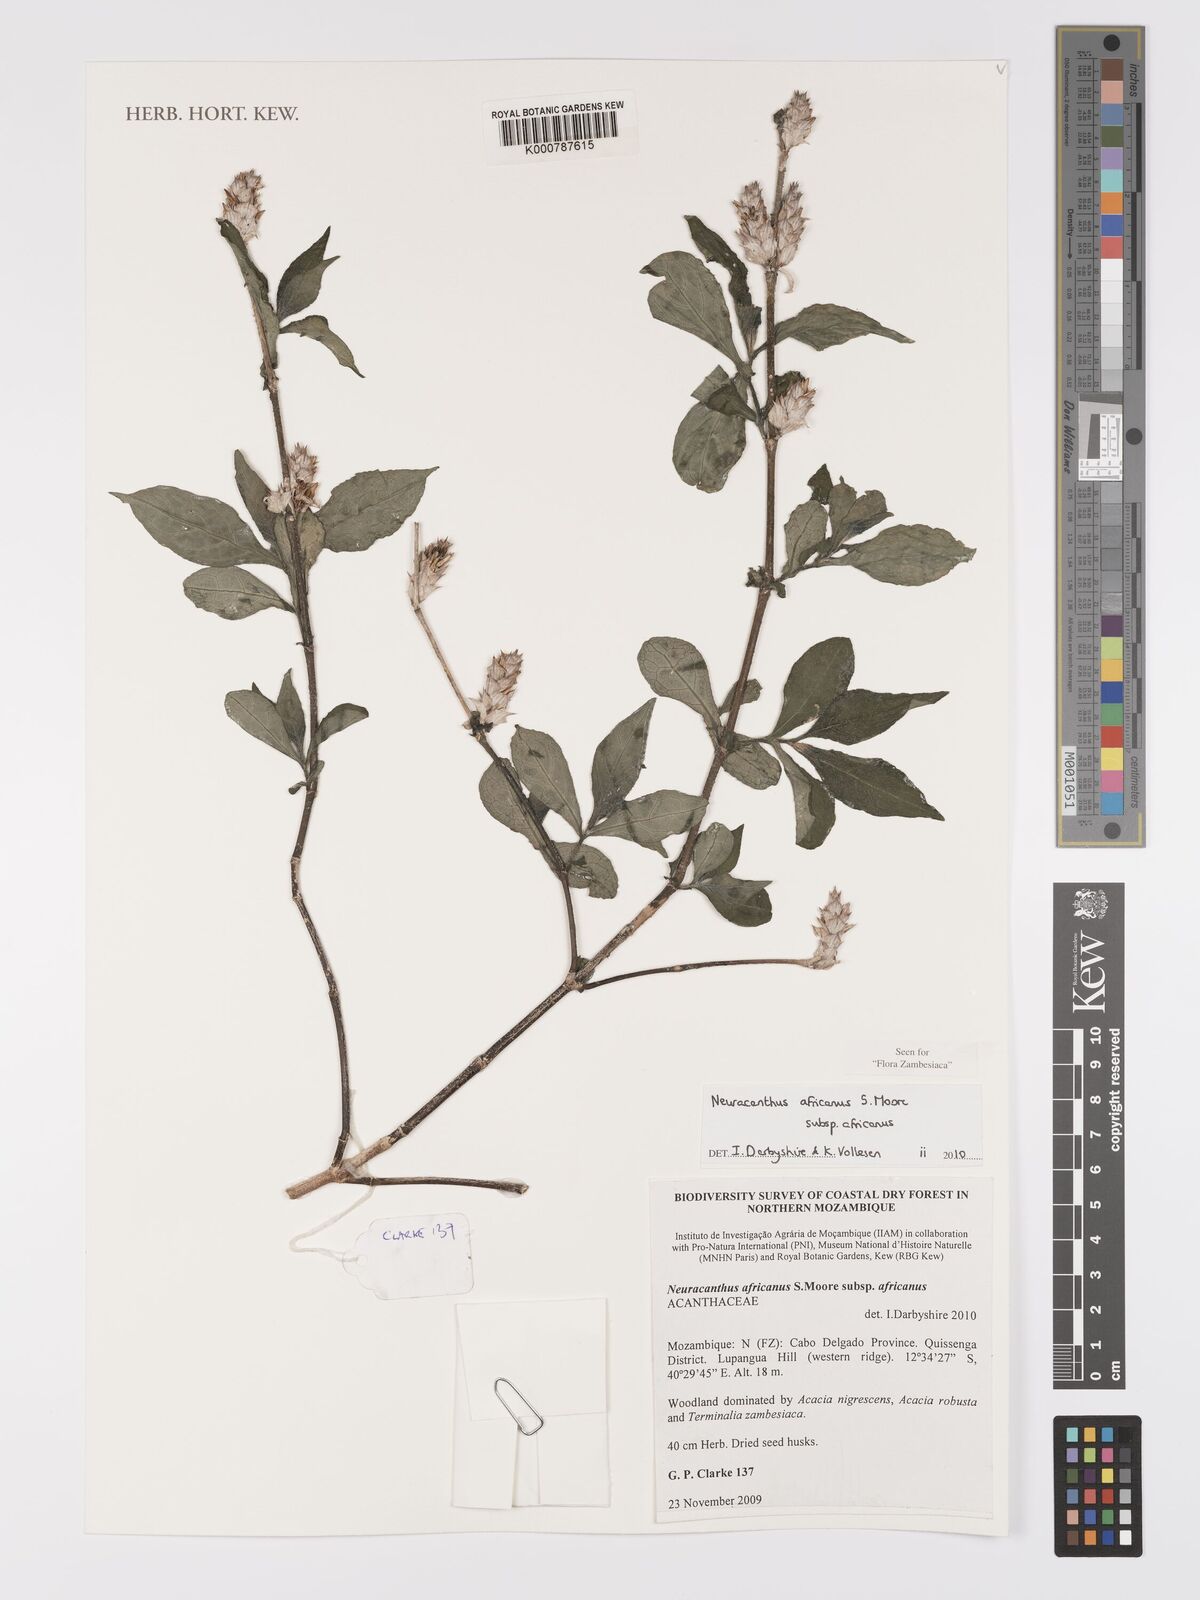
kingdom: Plantae
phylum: Tracheophyta
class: Magnoliopsida
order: Lamiales
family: Acanthaceae
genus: Neuracanthus
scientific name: Neuracanthus africanus
